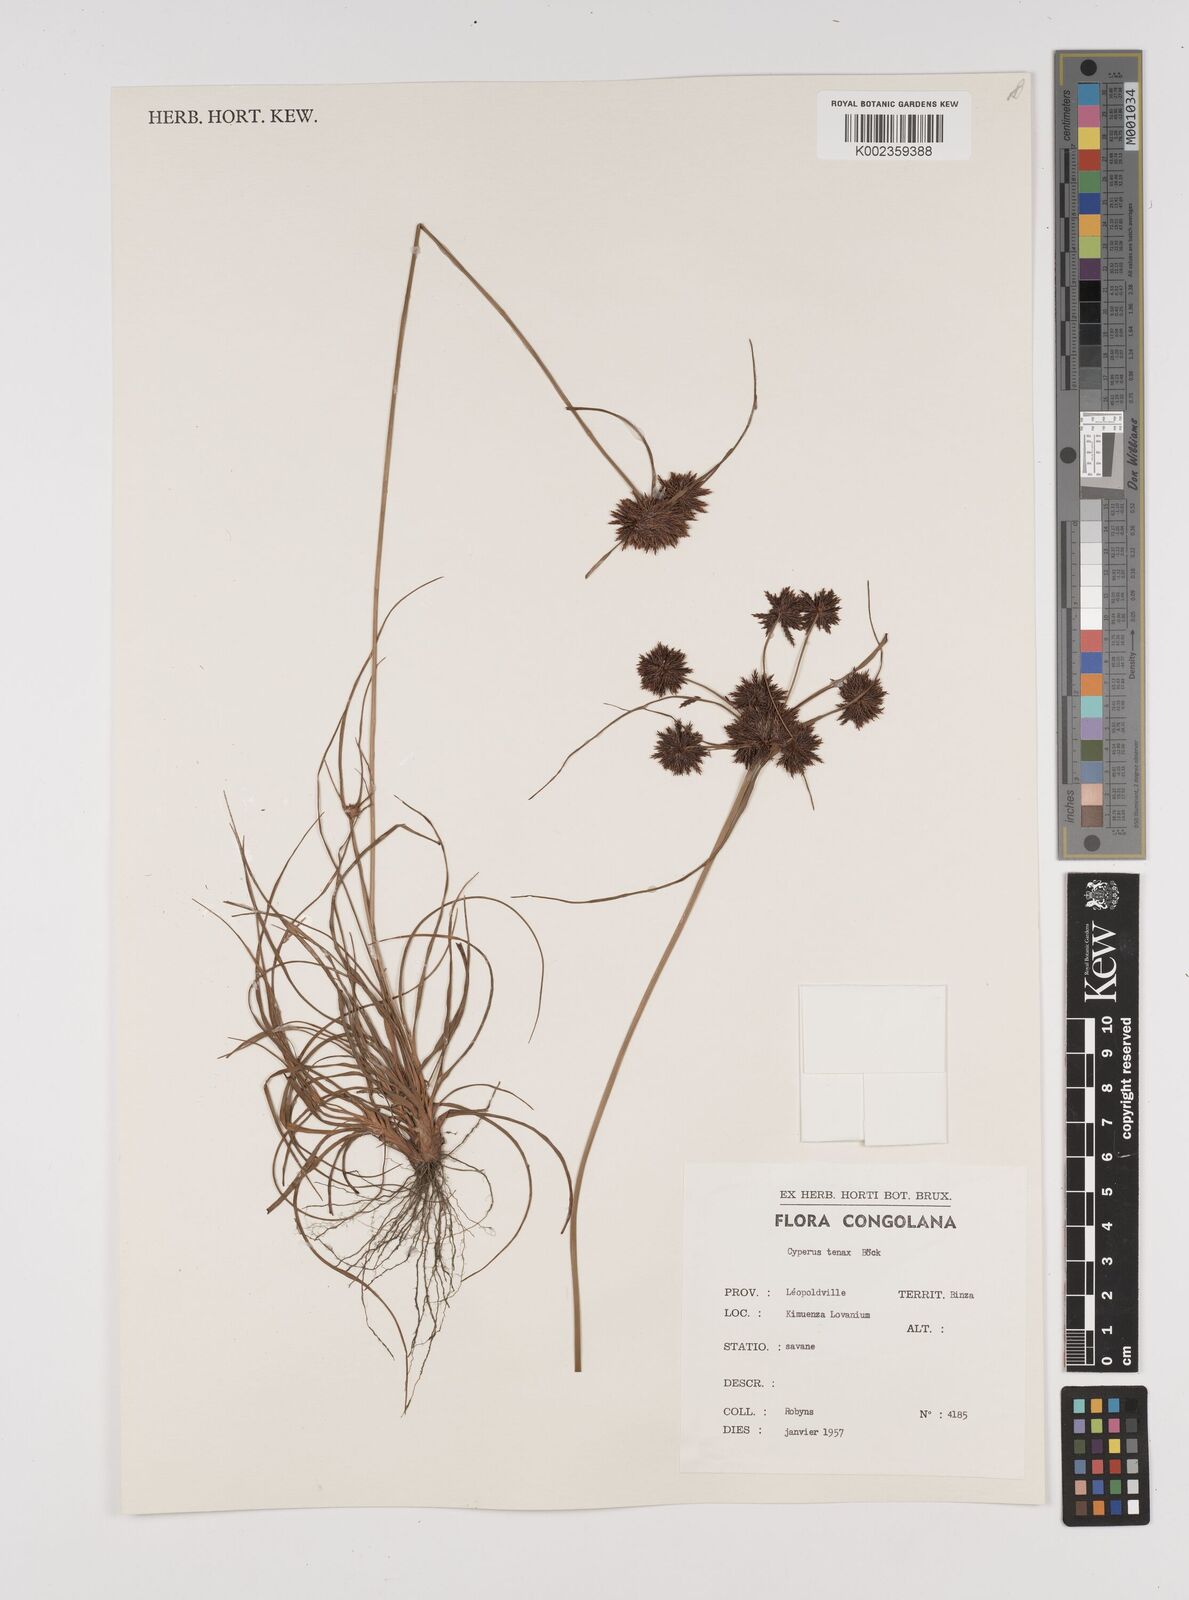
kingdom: Plantae
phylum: Tracheophyta
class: Liliopsida
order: Poales
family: Cyperaceae
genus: Cyperus
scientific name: Cyperus tenax
